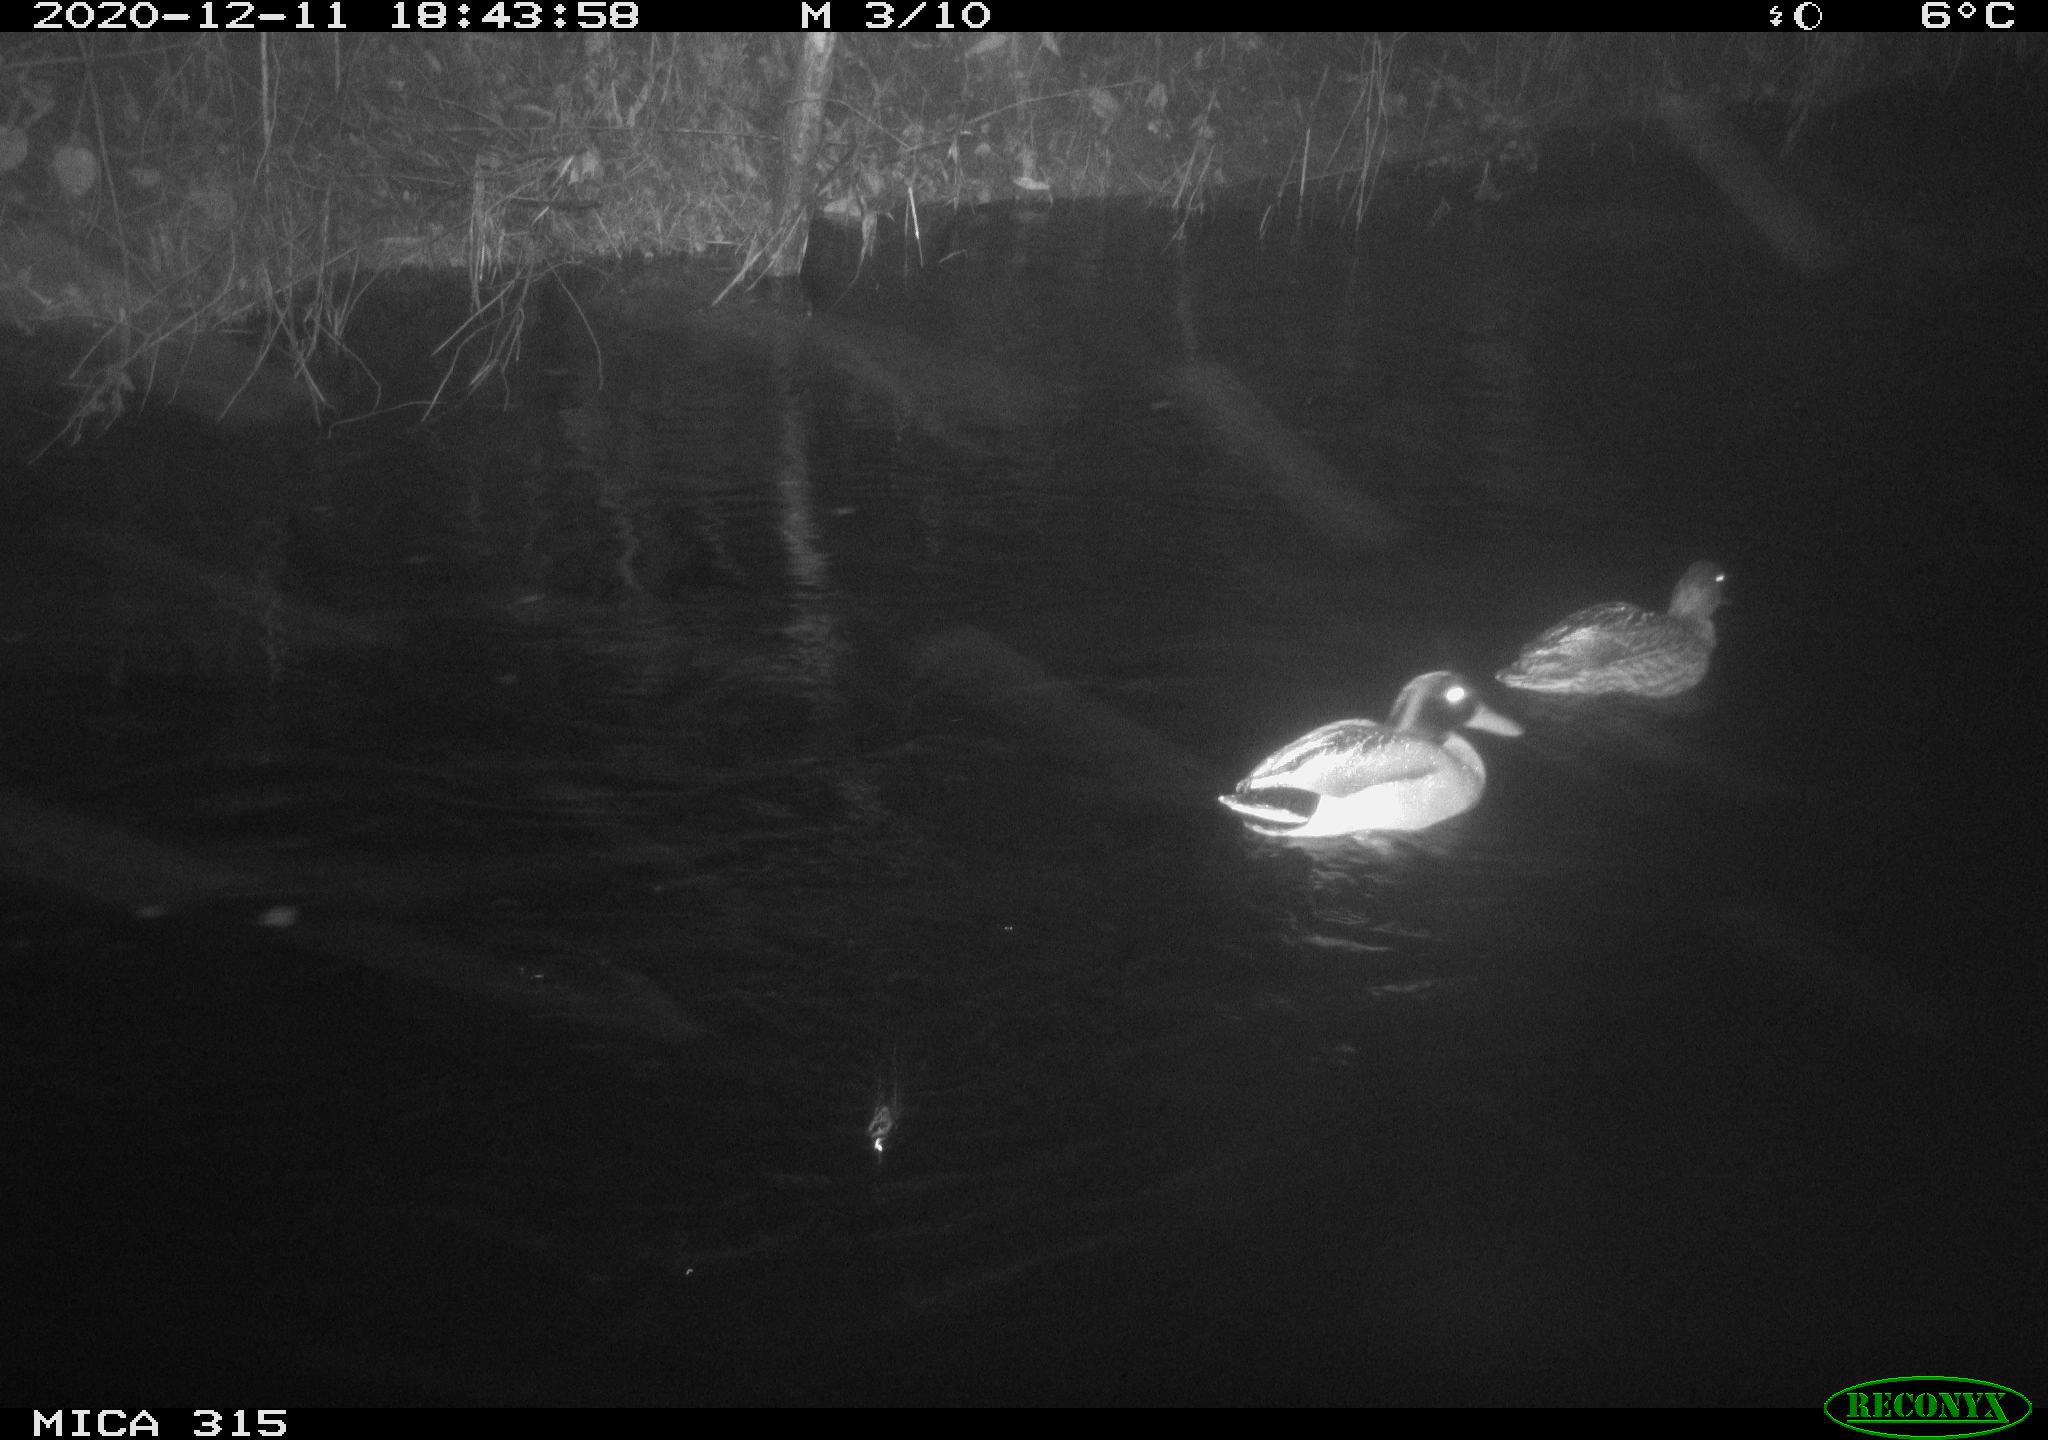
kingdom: Animalia
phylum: Chordata
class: Aves
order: Anseriformes
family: Anatidae
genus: Anas
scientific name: Anas platyrhynchos
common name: Mallard
